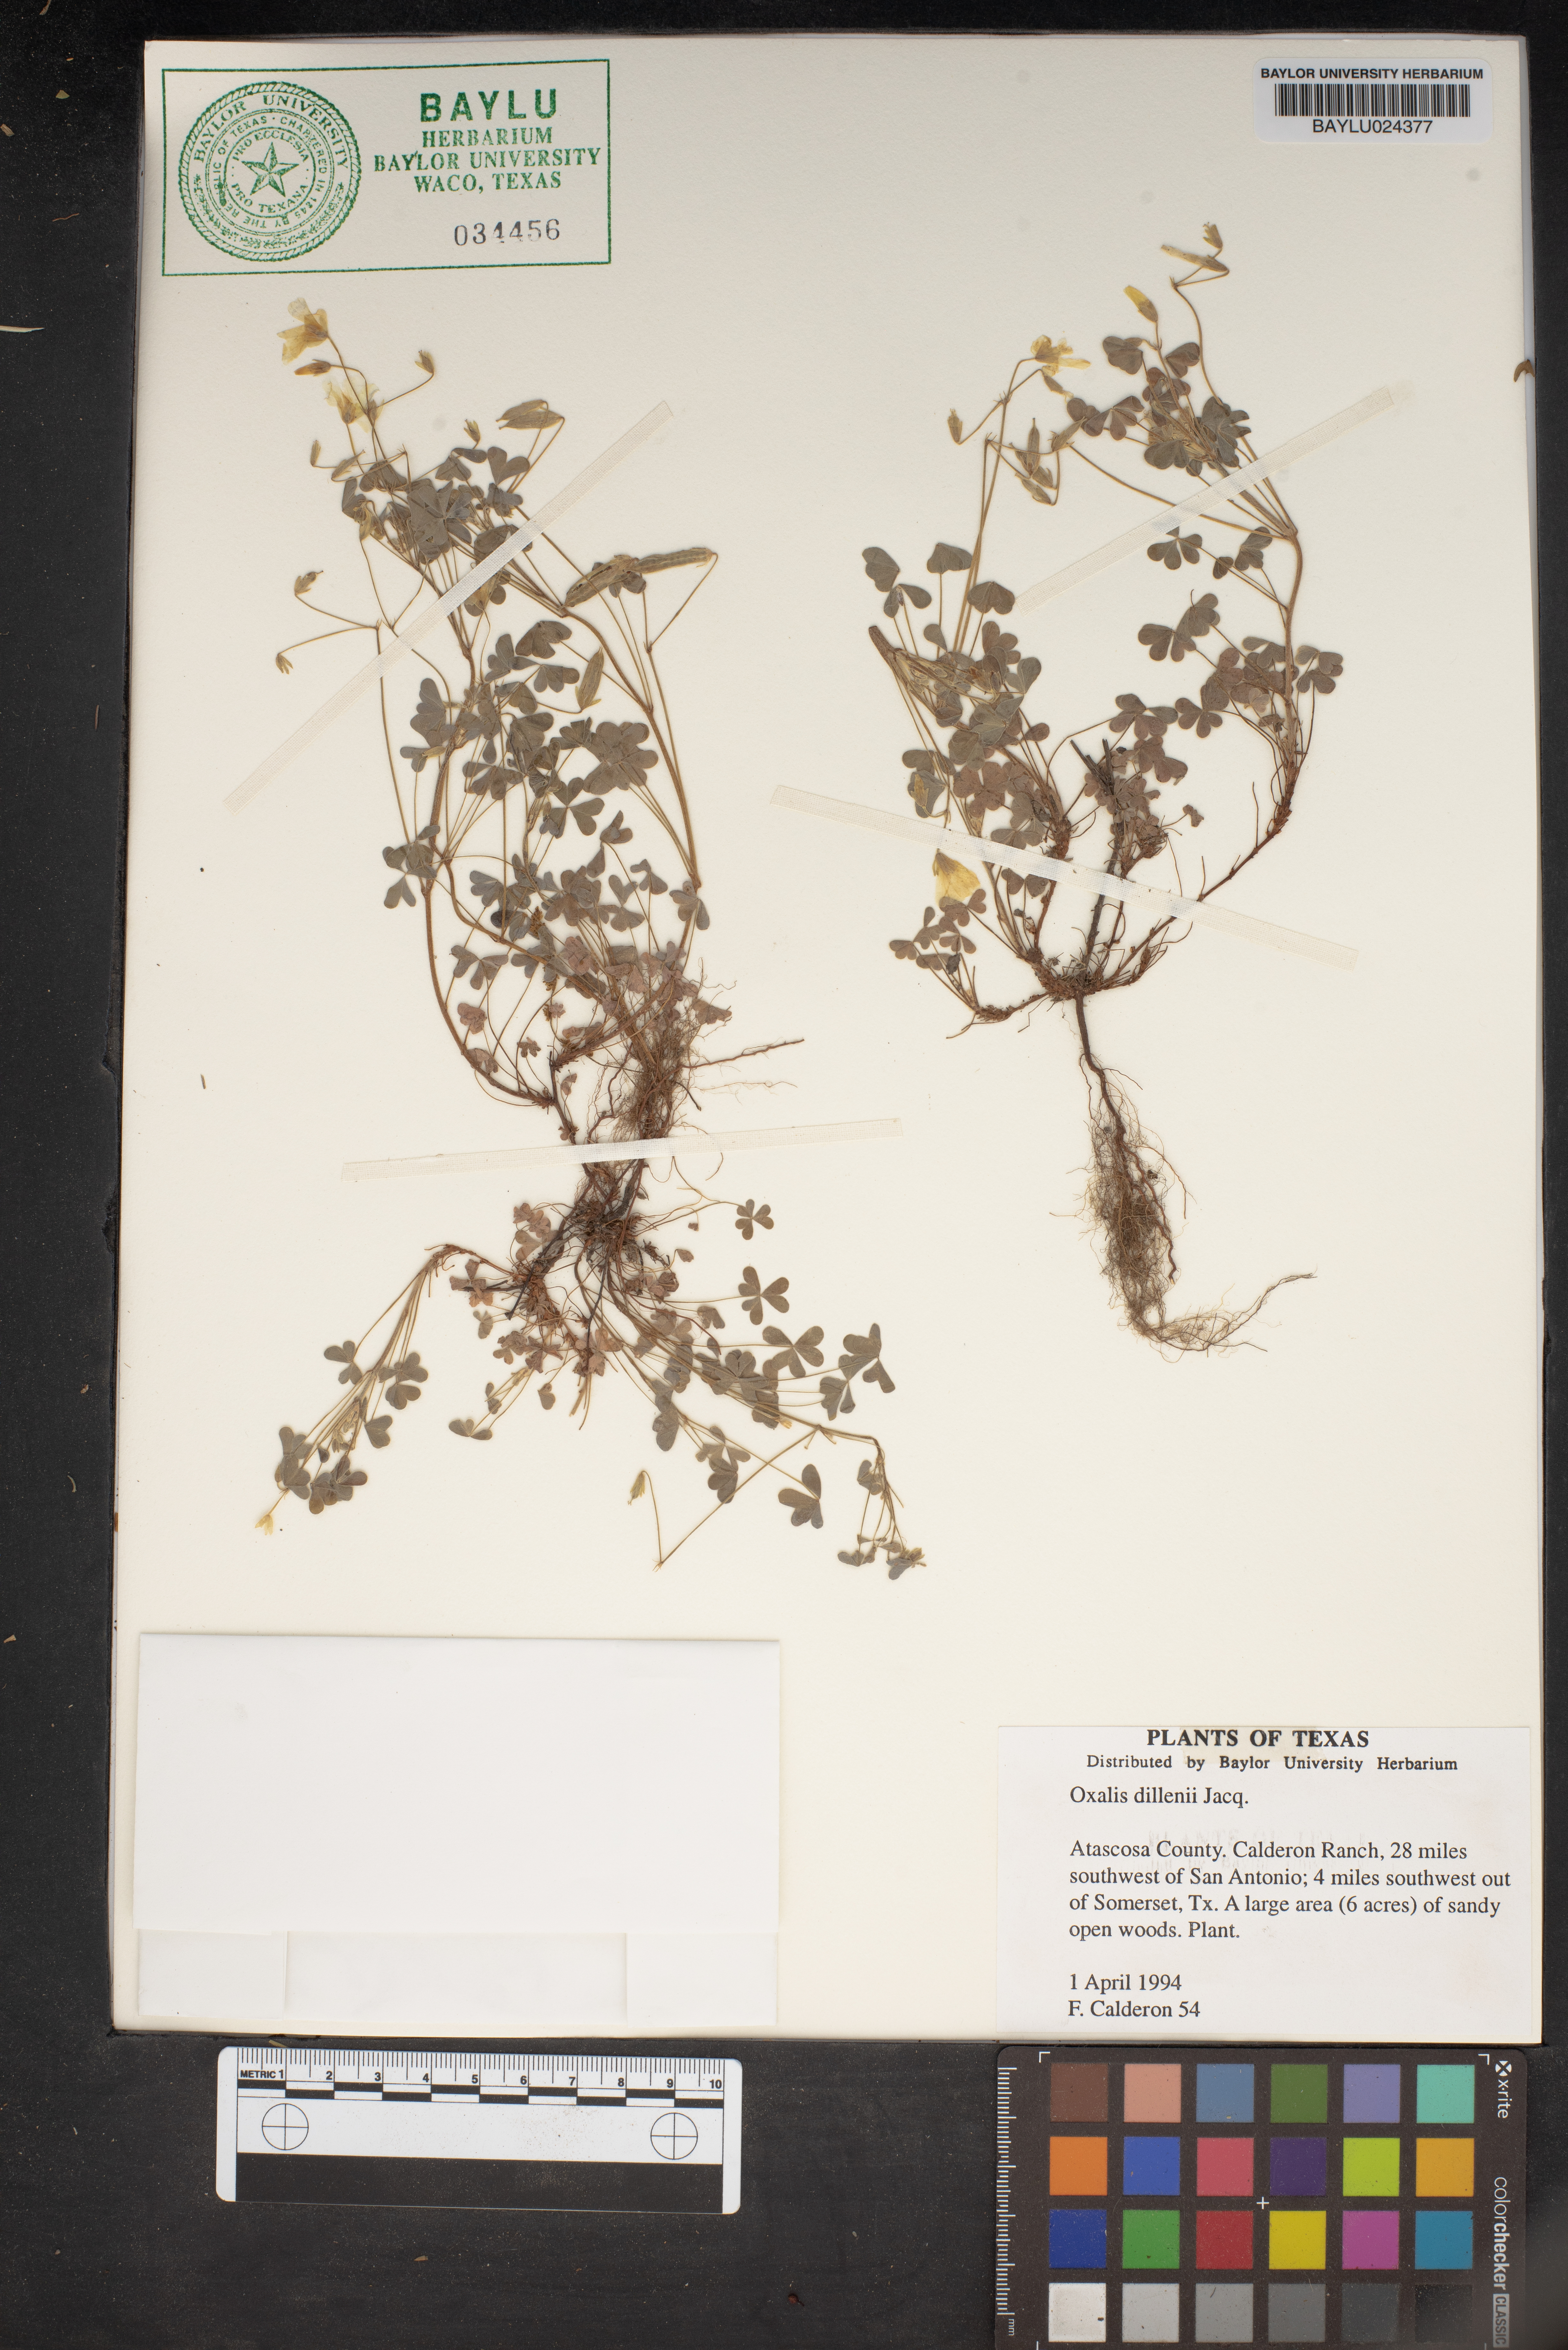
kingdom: Plantae
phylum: Tracheophyta
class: Magnoliopsida
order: Oxalidales
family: Oxalidaceae
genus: Oxalis
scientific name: Oxalis dillenii
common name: Sussex yellow-sorrel
